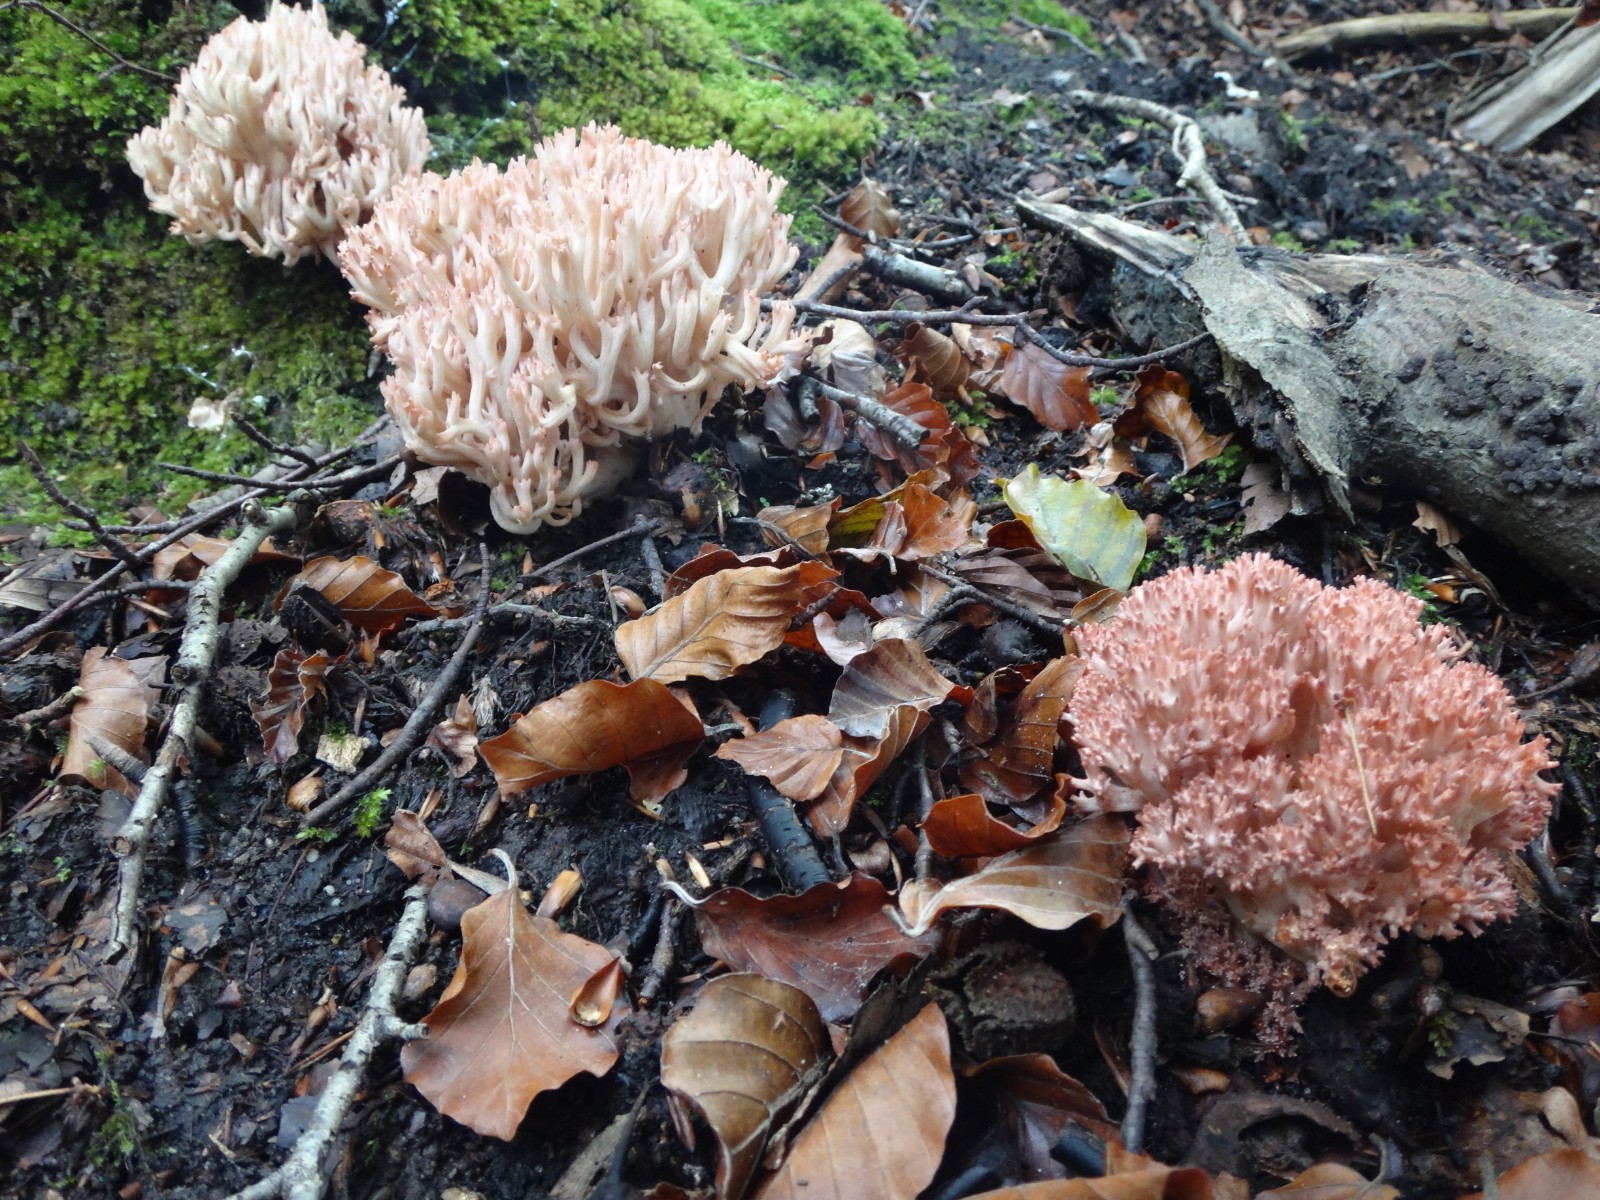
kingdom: Fungi
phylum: Basidiomycota
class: Agaricomycetes
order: Gomphales
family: Gomphaceae
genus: Ramaria
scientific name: Ramaria botrytis
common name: drue-koralsvamp
